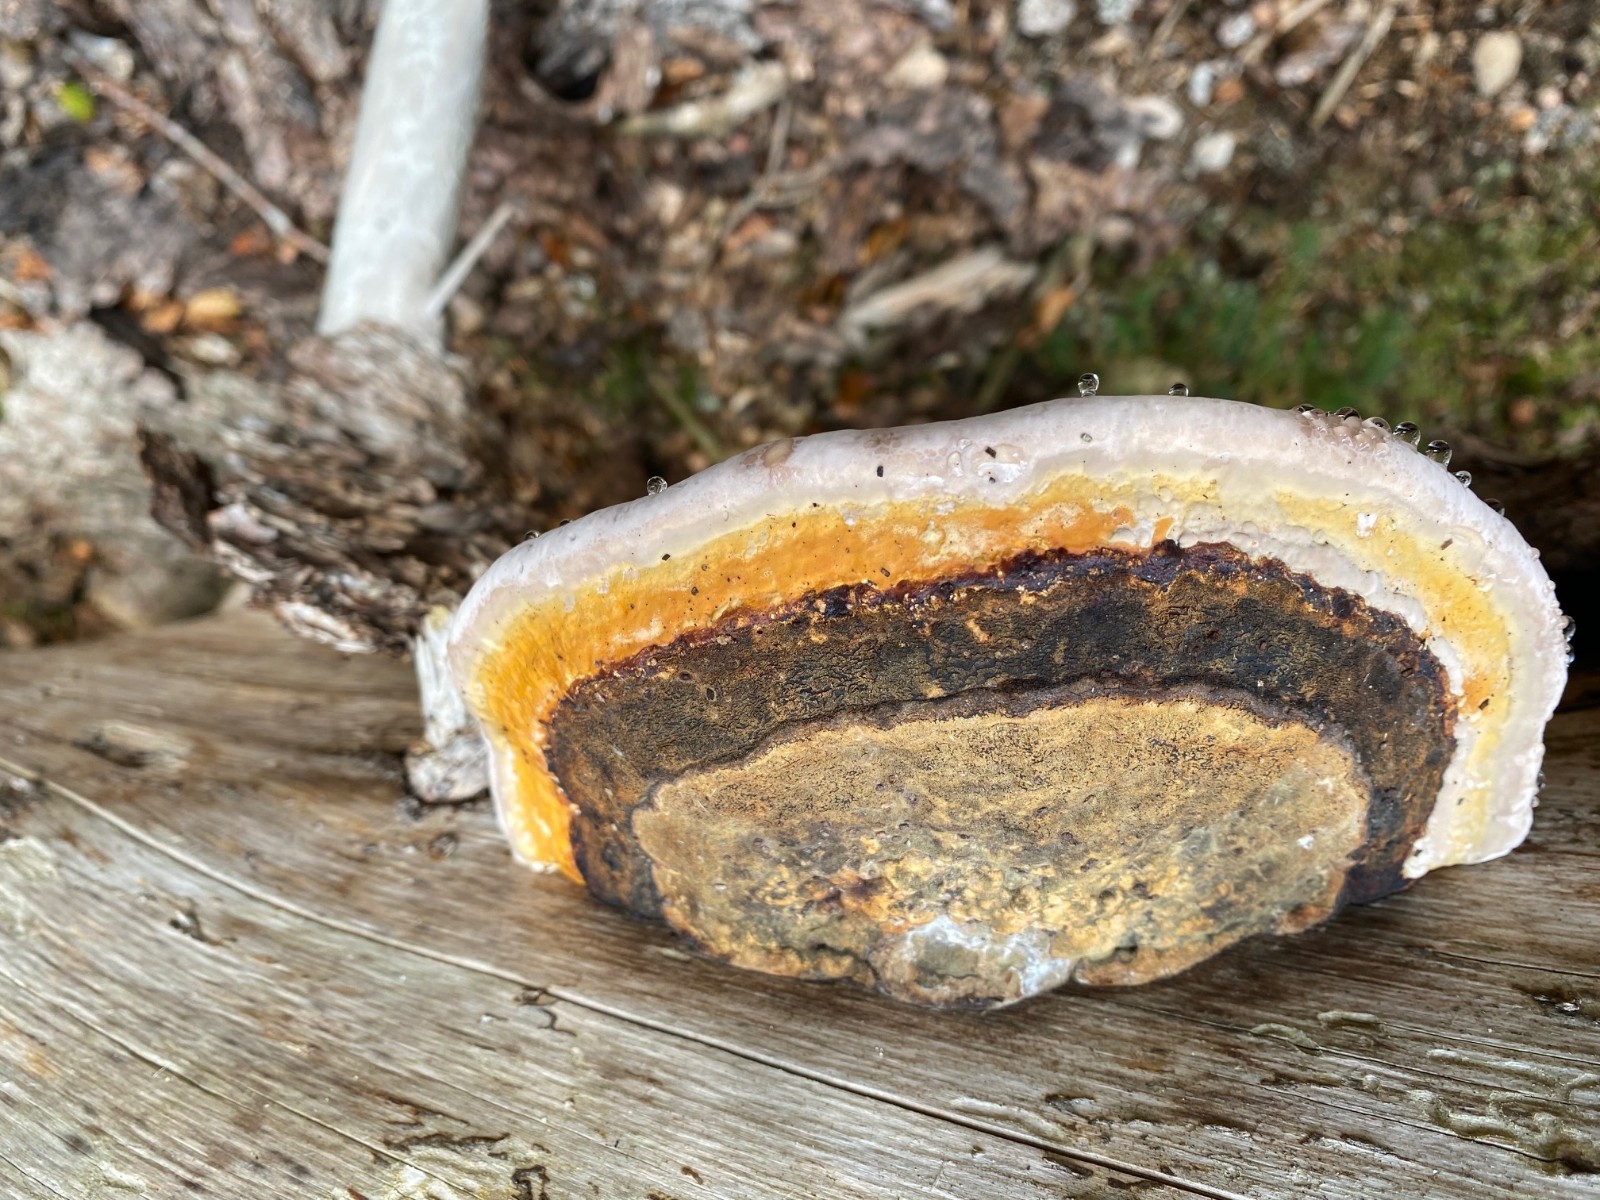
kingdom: Fungi
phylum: Basidiomycota
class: Agaricomycetes
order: Polyporales
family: Fomitopsidaceae
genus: Fomitopsis
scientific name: Fomitopsis pinicola
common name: randbæltet hovporesvamp
